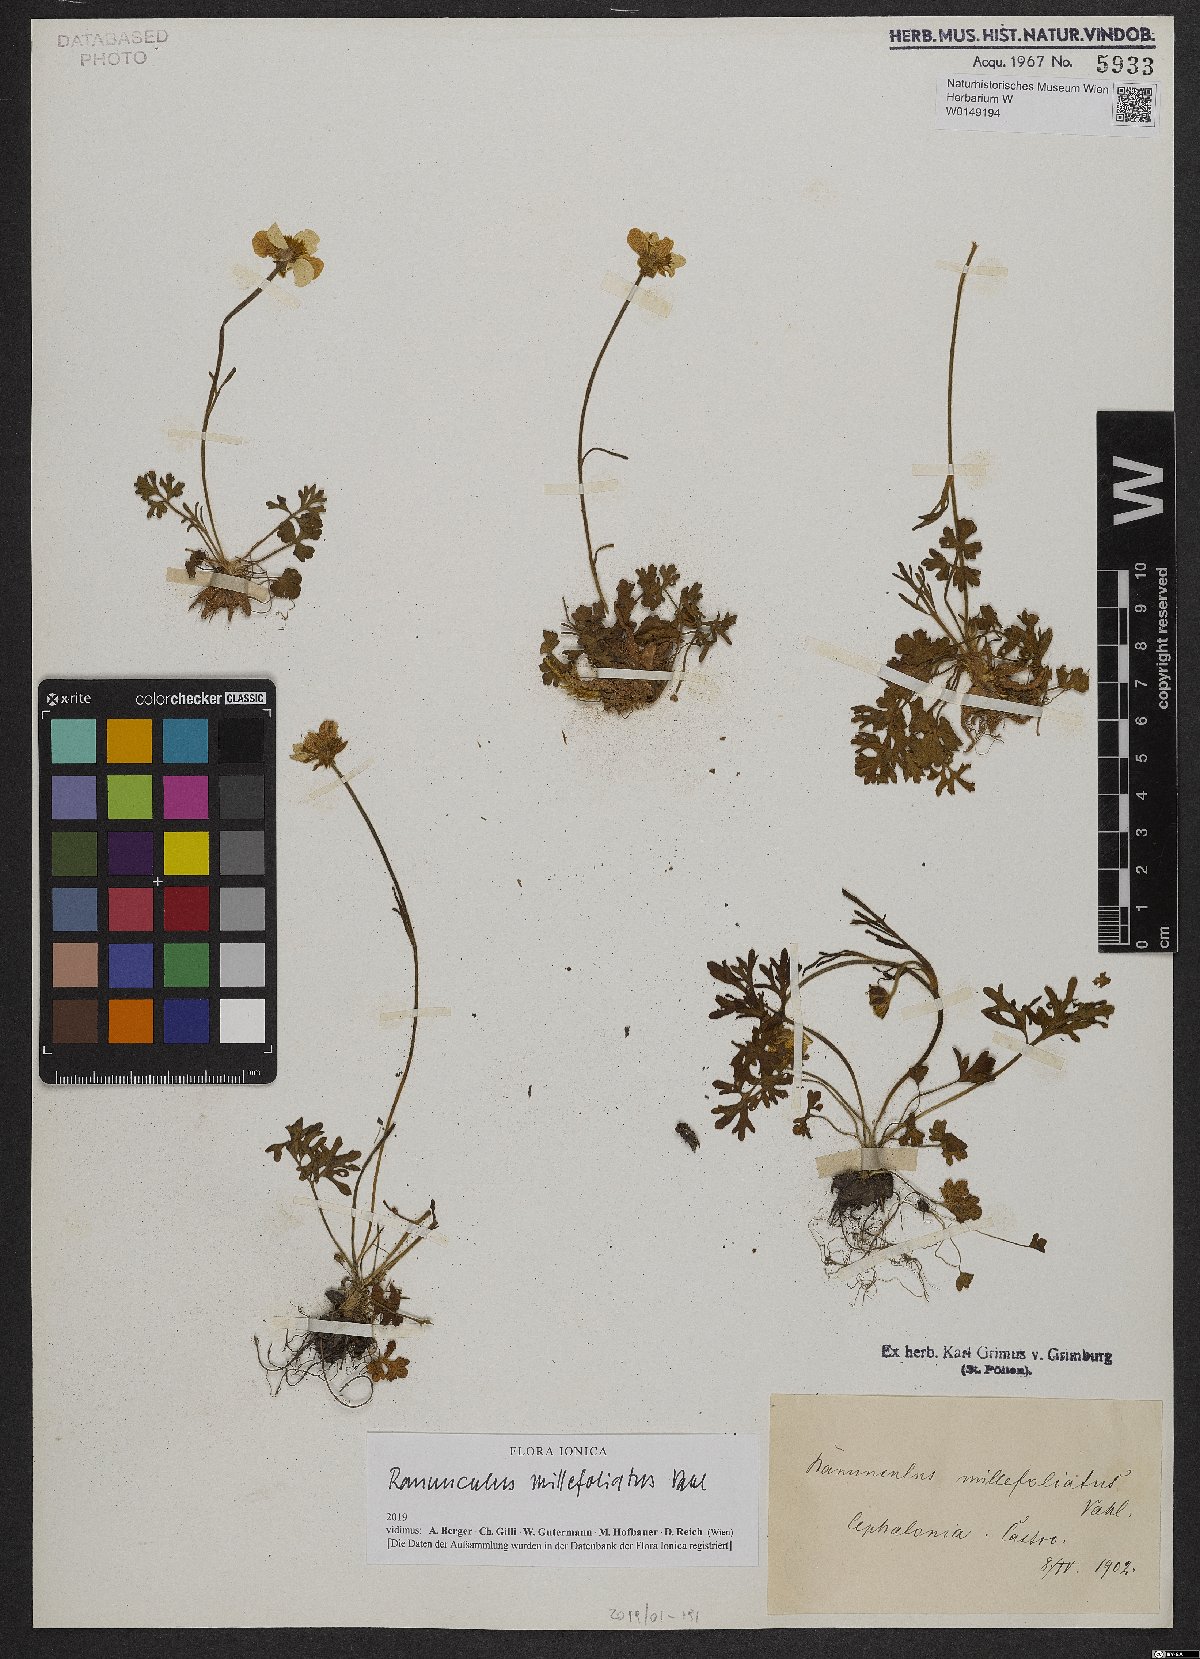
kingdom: Plantae
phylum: Tracheophyta
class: Magnoliopsida
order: Ranunculales
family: Ranunculaceae
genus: Ranunculus
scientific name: Ranunculus millefoliatus
